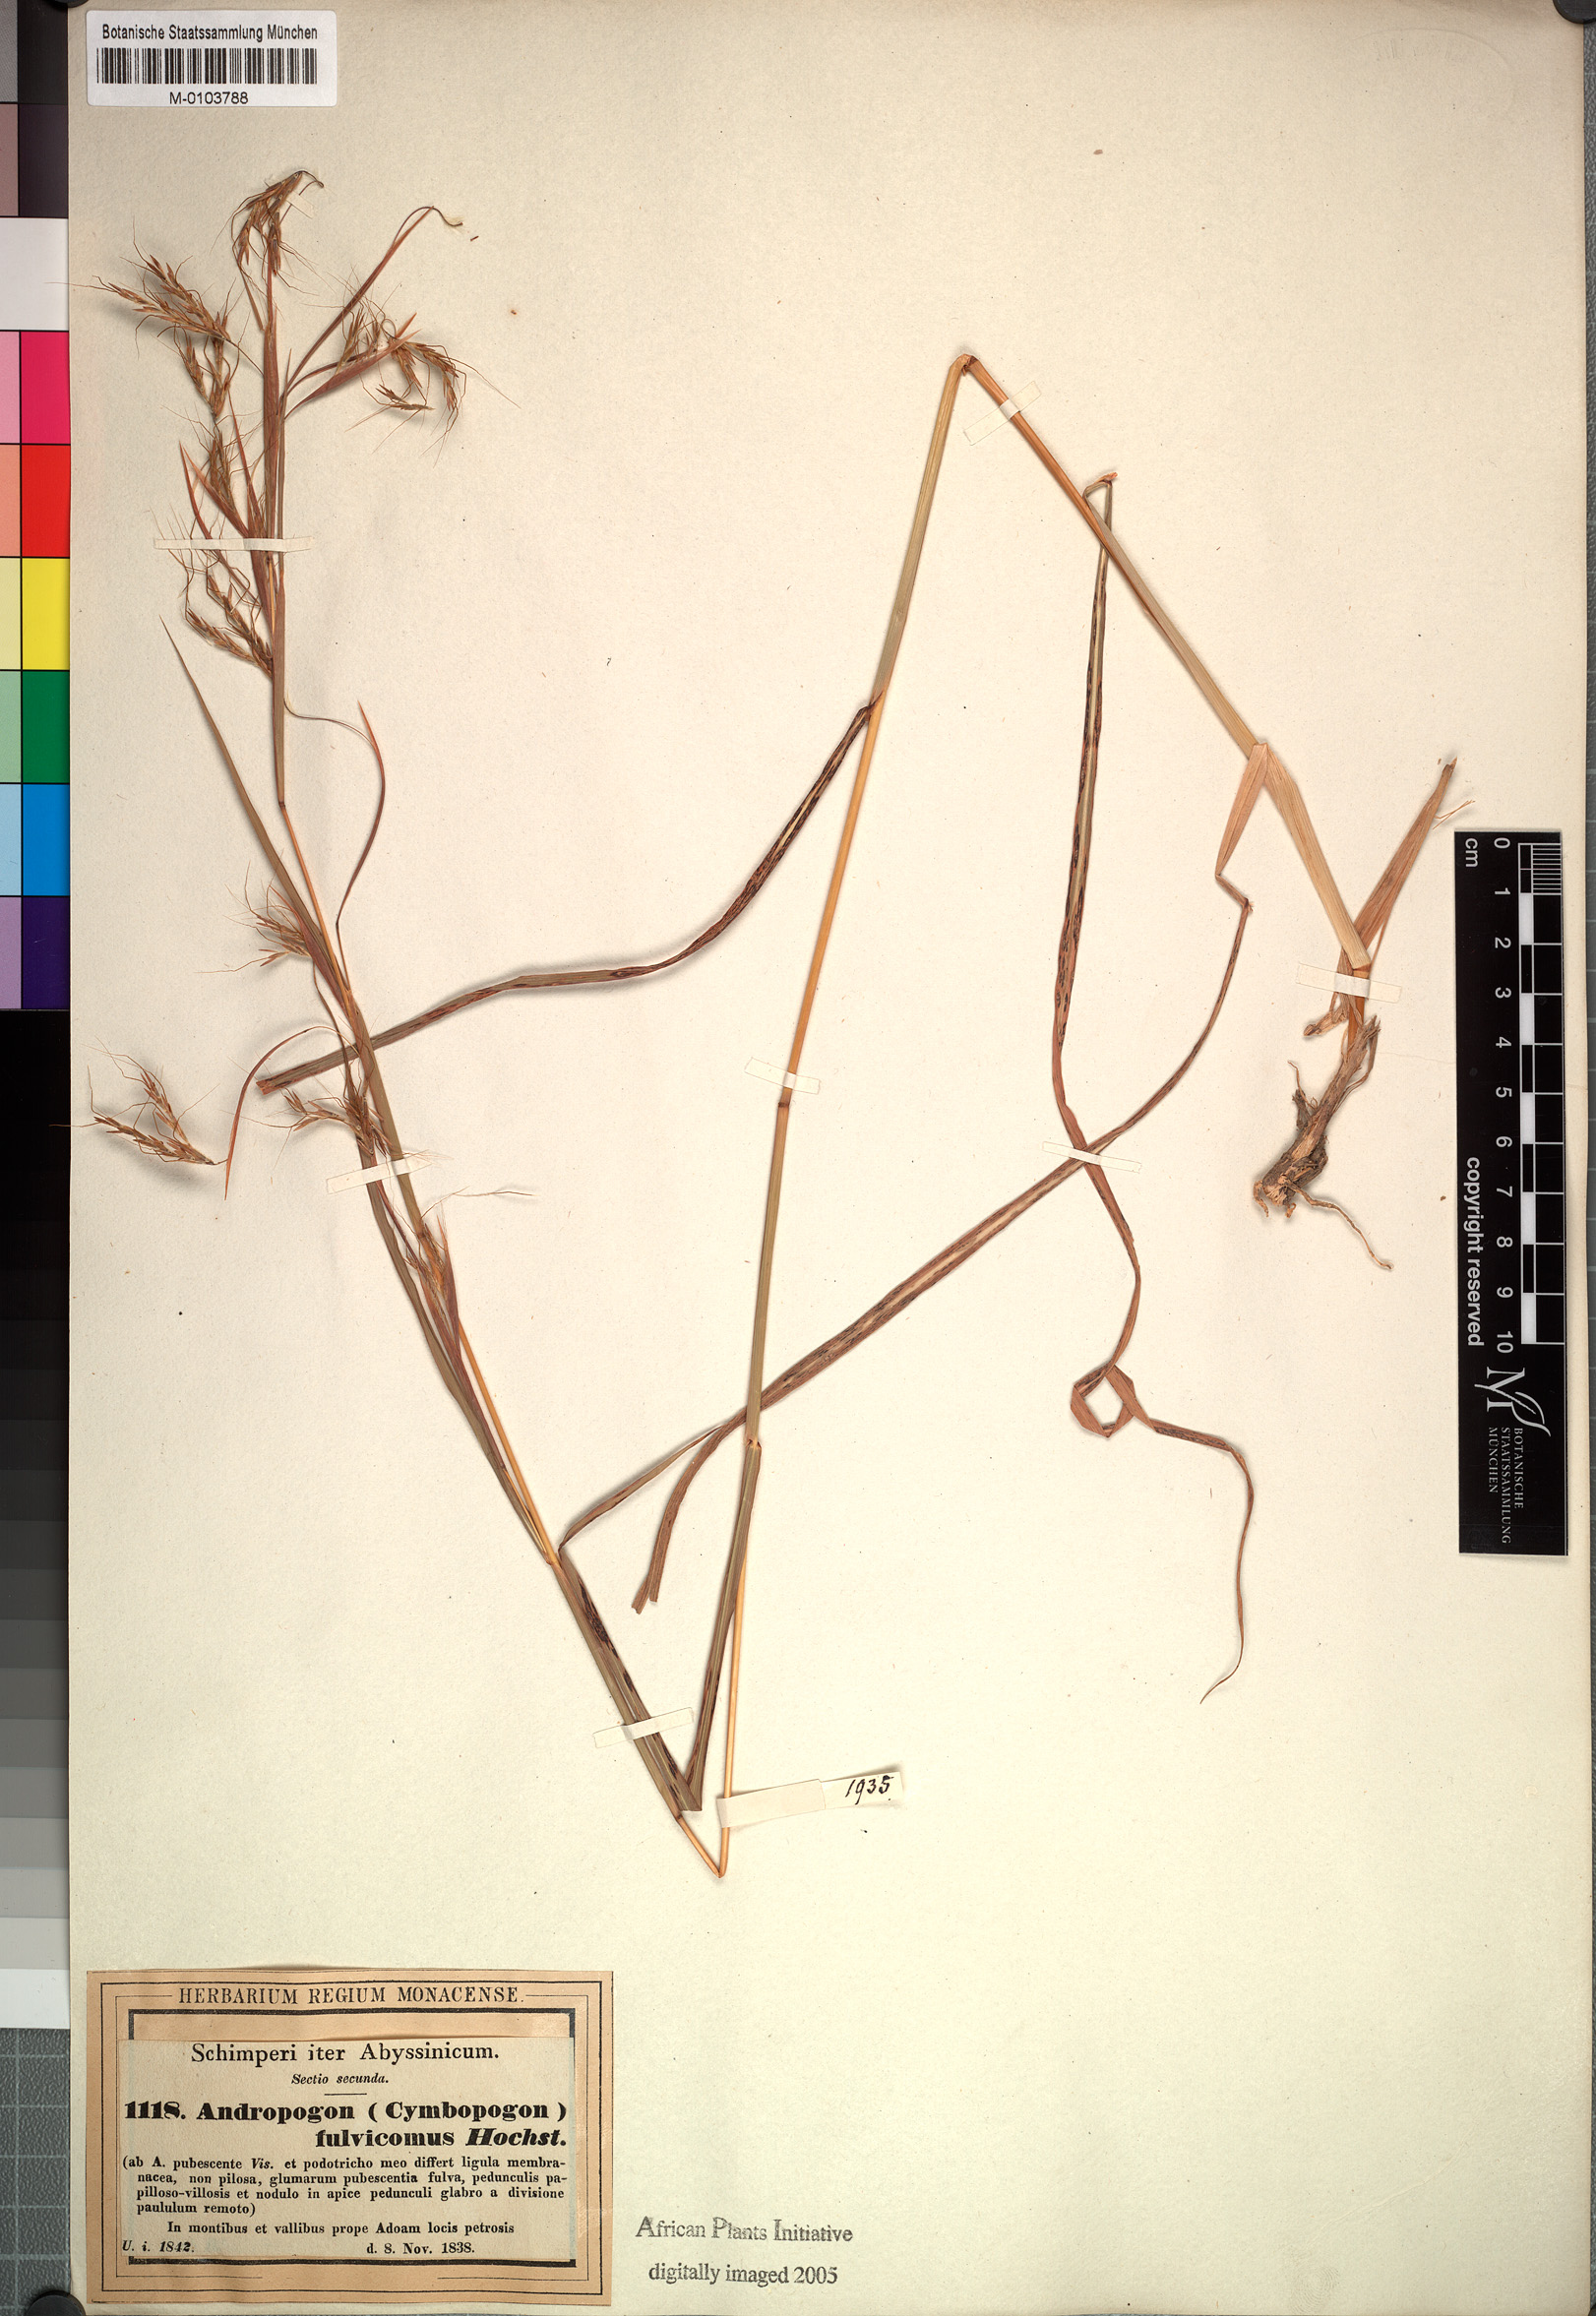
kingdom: Plantae
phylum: Tracheophyta
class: Liliopsida
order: Poales
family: Poaceae
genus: Hyparrhenia
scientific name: Hyparrhenia rufa
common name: Jaraguagrass
